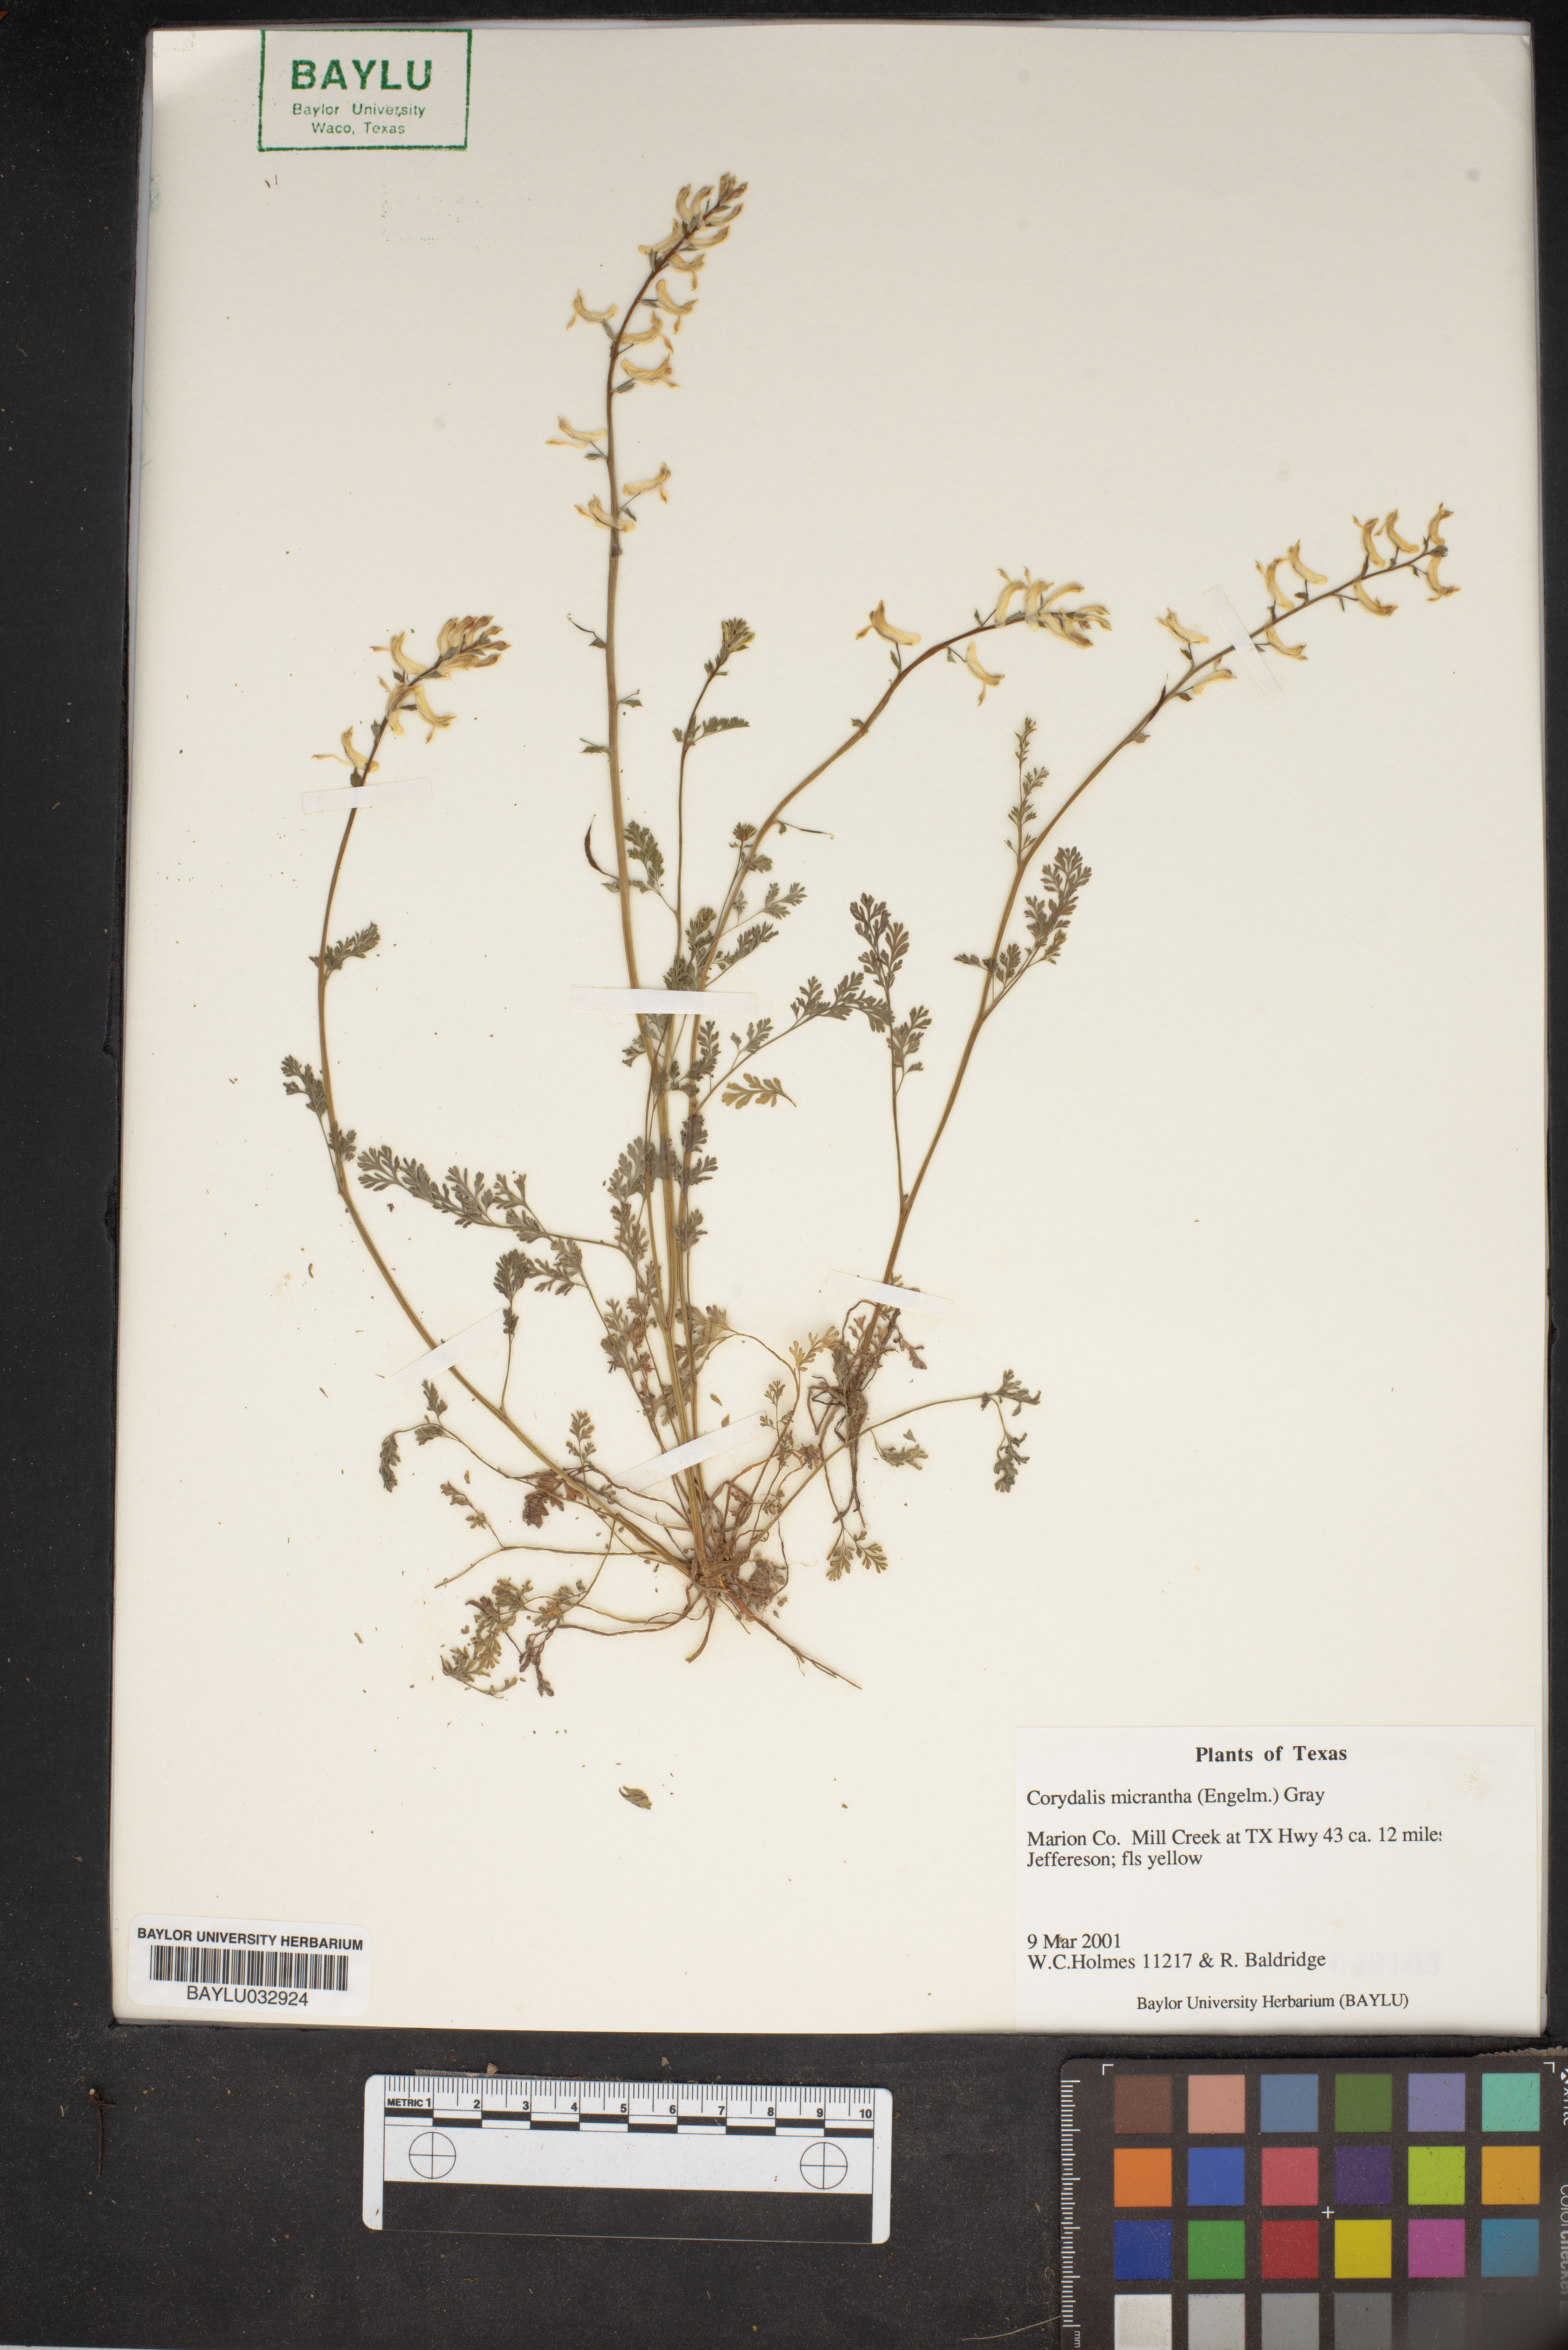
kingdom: Plantae
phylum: Tracheophyta
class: Magnoliopsida
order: Ranunculales
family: Papaveraceae
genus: Corydalis
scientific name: Corydalis micrantha
